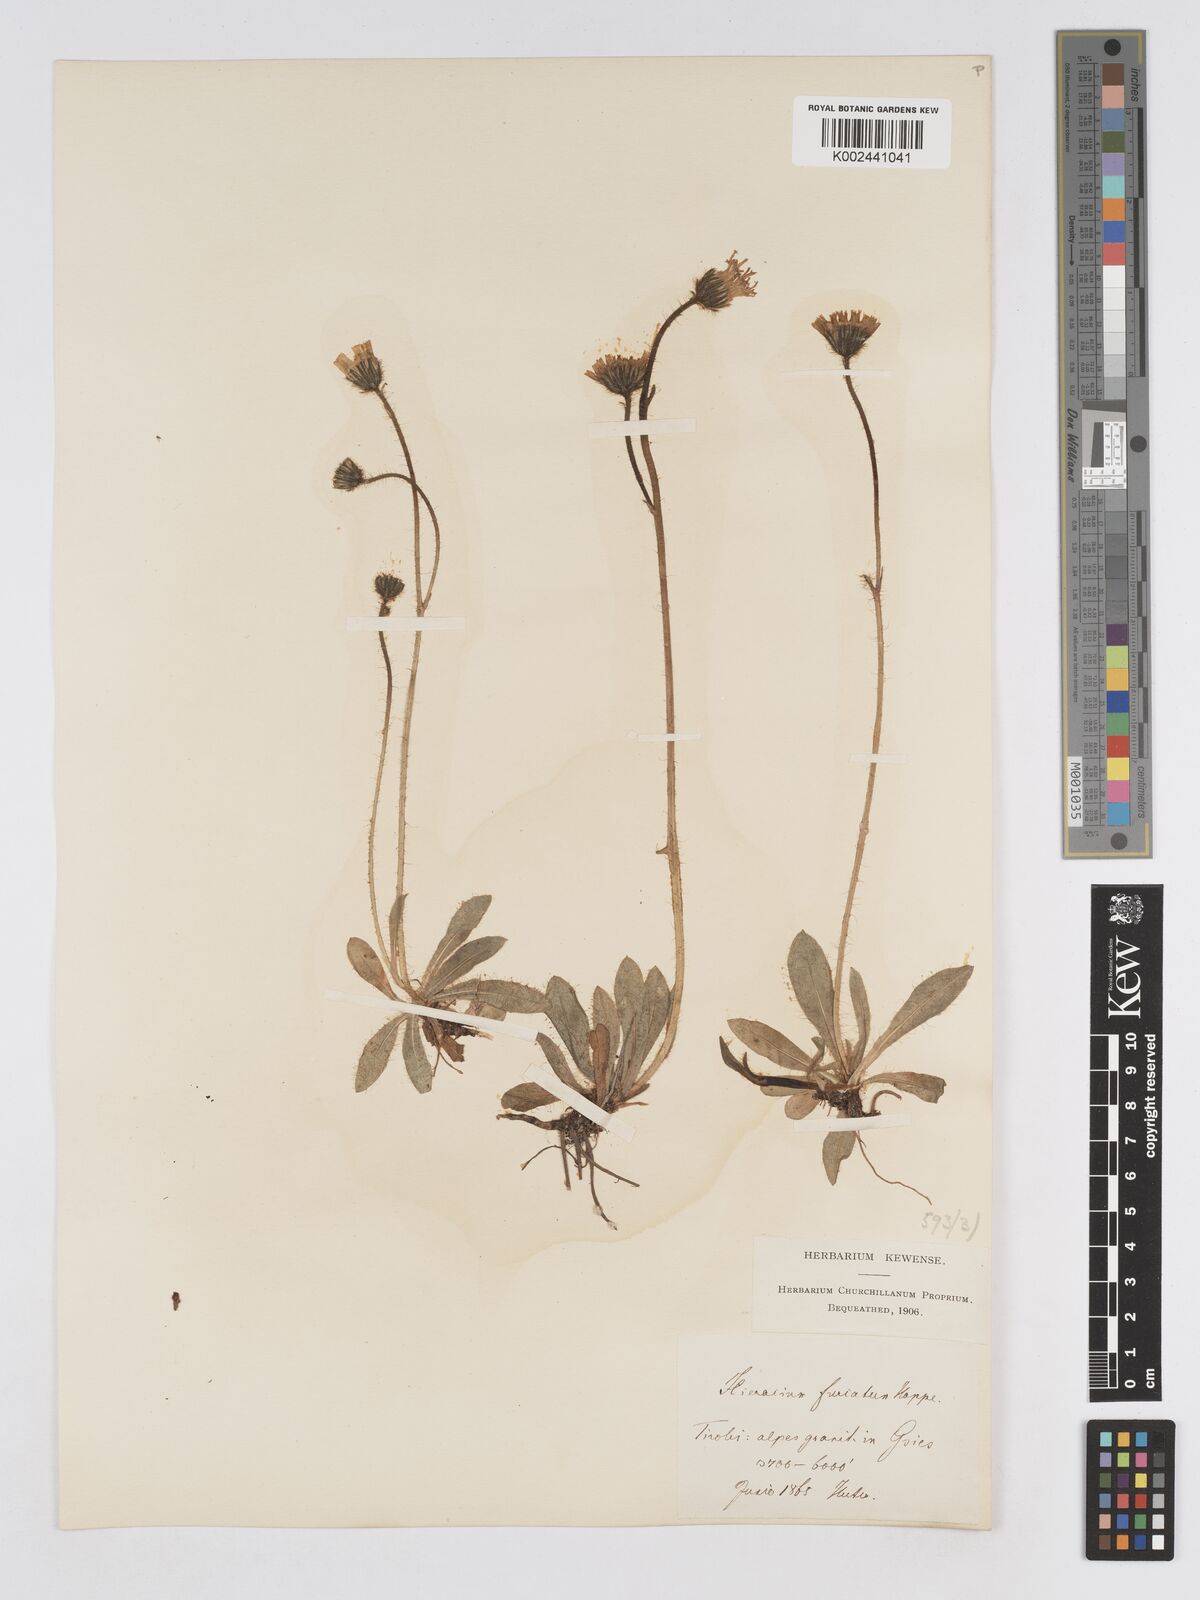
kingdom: Plantae
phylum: Tracheophyta
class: Magnoliopsida
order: Asterales
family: Asteraceae
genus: Pilosella
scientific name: Pilosella sphaerocephala
